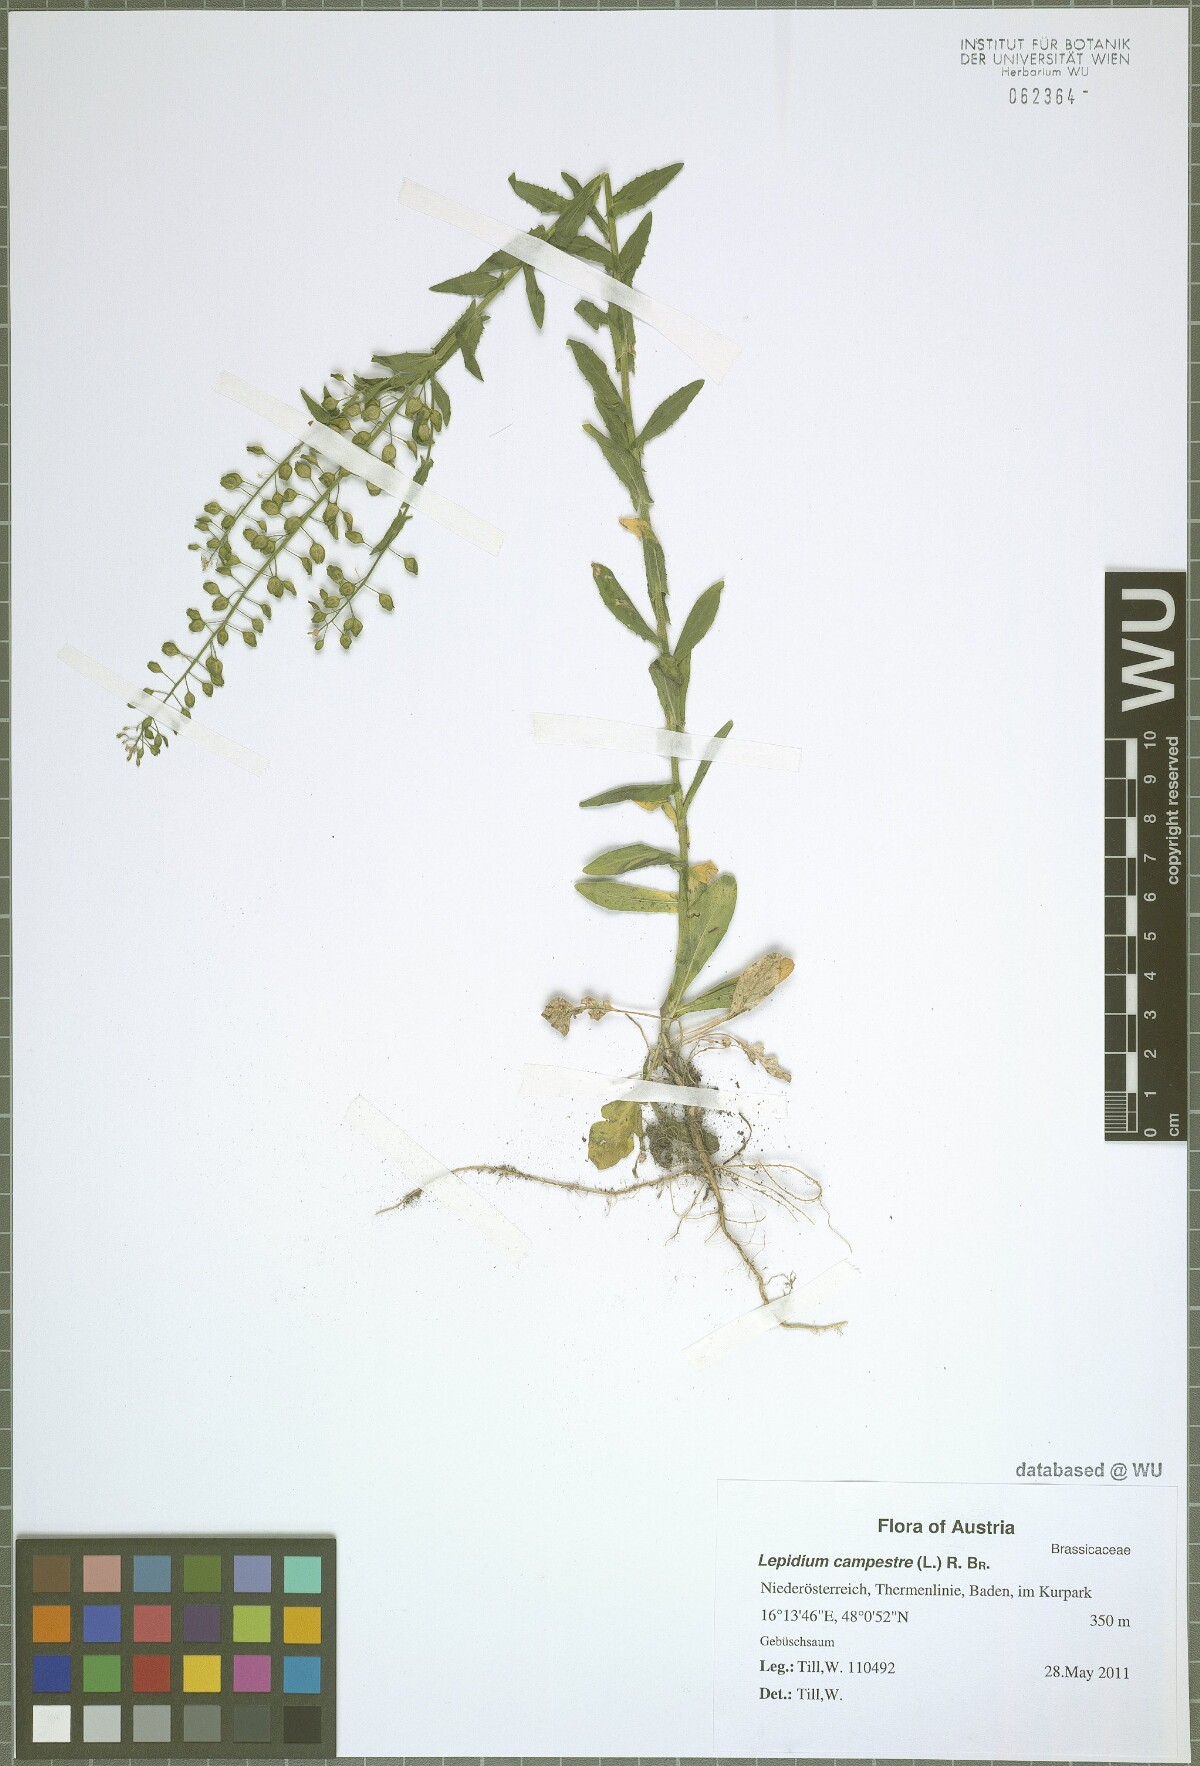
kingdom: Plantae
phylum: Tracheophyta
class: Magnoliopsida
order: Brassicales
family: Brassicaceae
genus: Lepidium
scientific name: Lepidium campestre
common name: Field pepperwort
